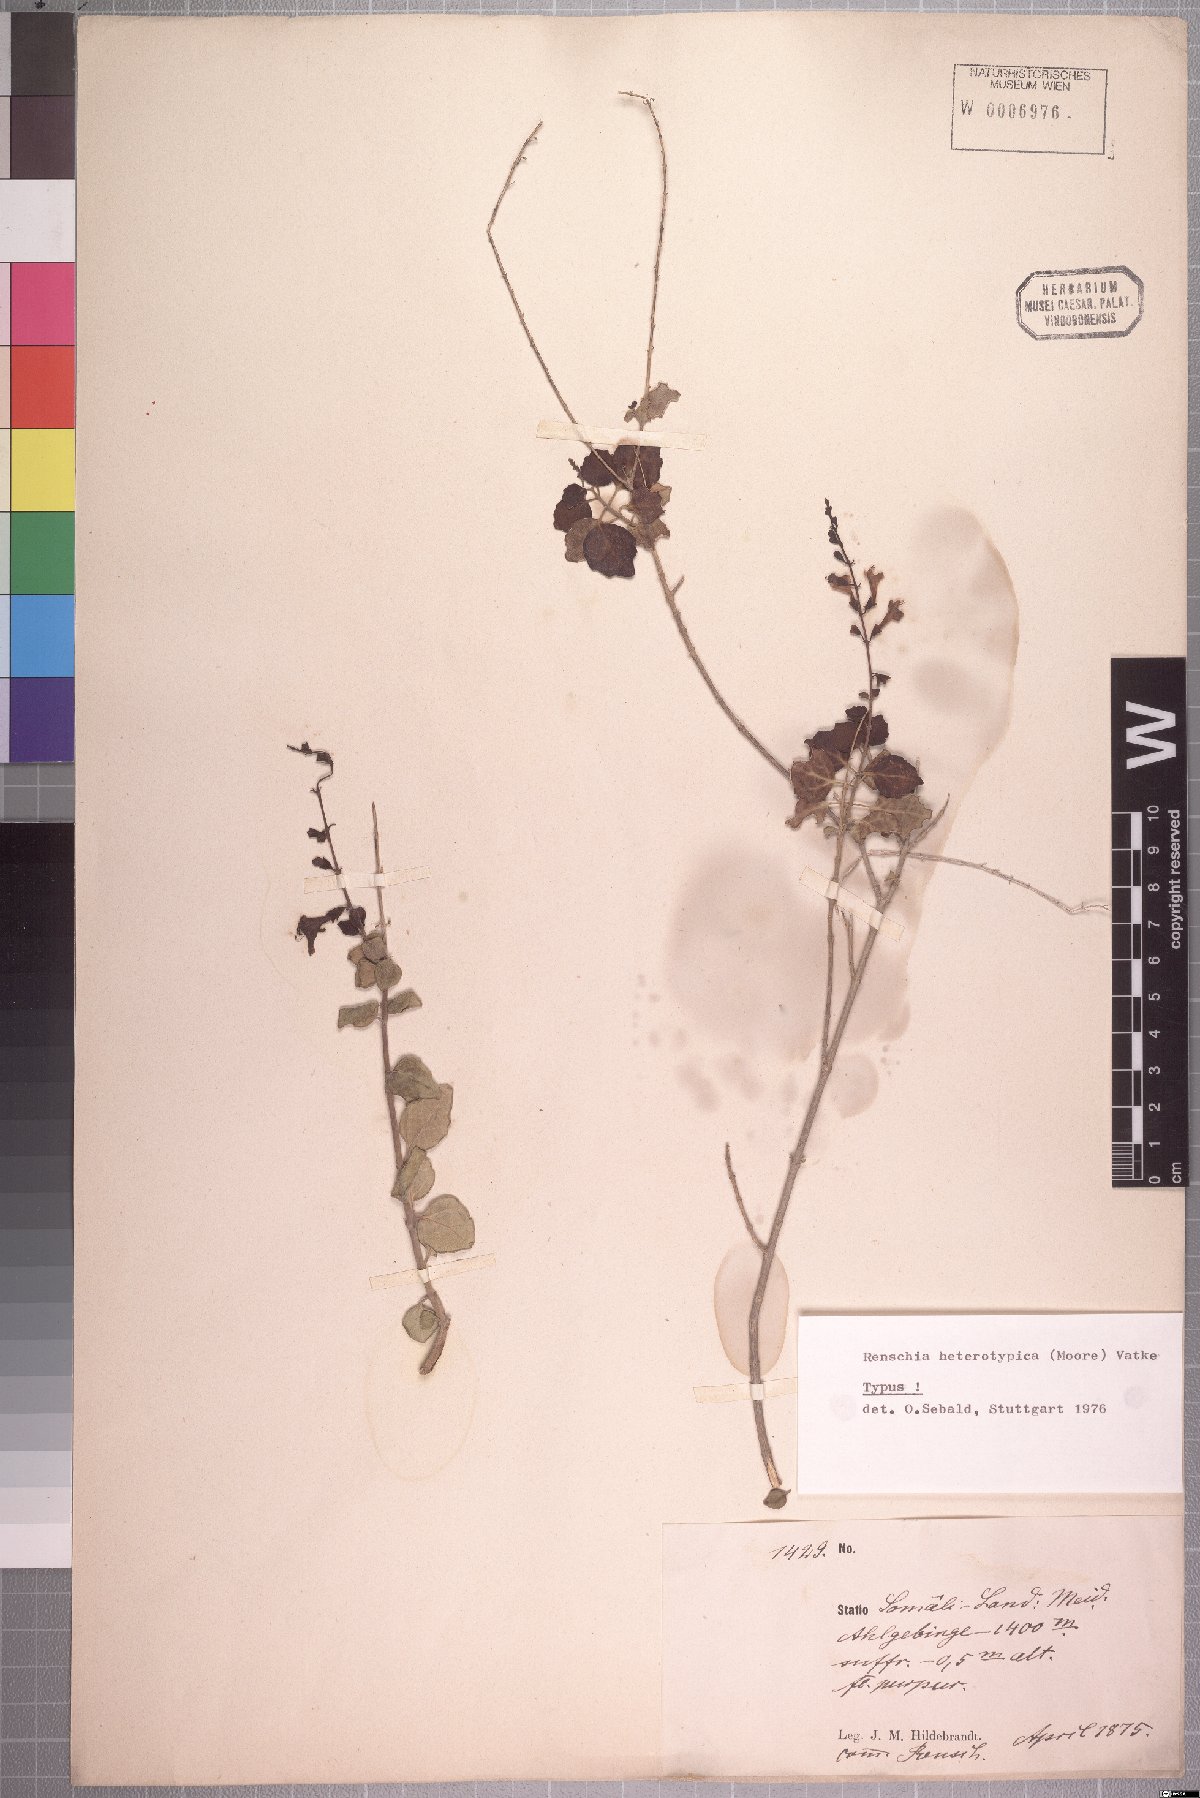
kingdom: Plantae
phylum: Tracheophyta
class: Magnoliopsida
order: Lamiales
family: Lamiaceae
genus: Renschia
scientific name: Renschia heterotypica
